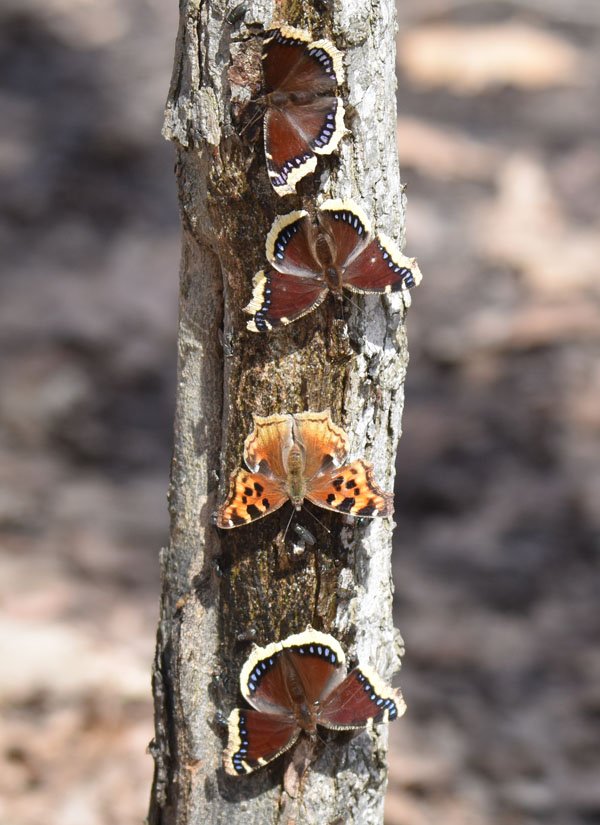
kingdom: Animalia
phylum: Arthropoda
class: Insecta
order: Lepidoptera
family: Nymphalidae
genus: Polygonia
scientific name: Polygonia vaualbum
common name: Compton Tortoiseshell
